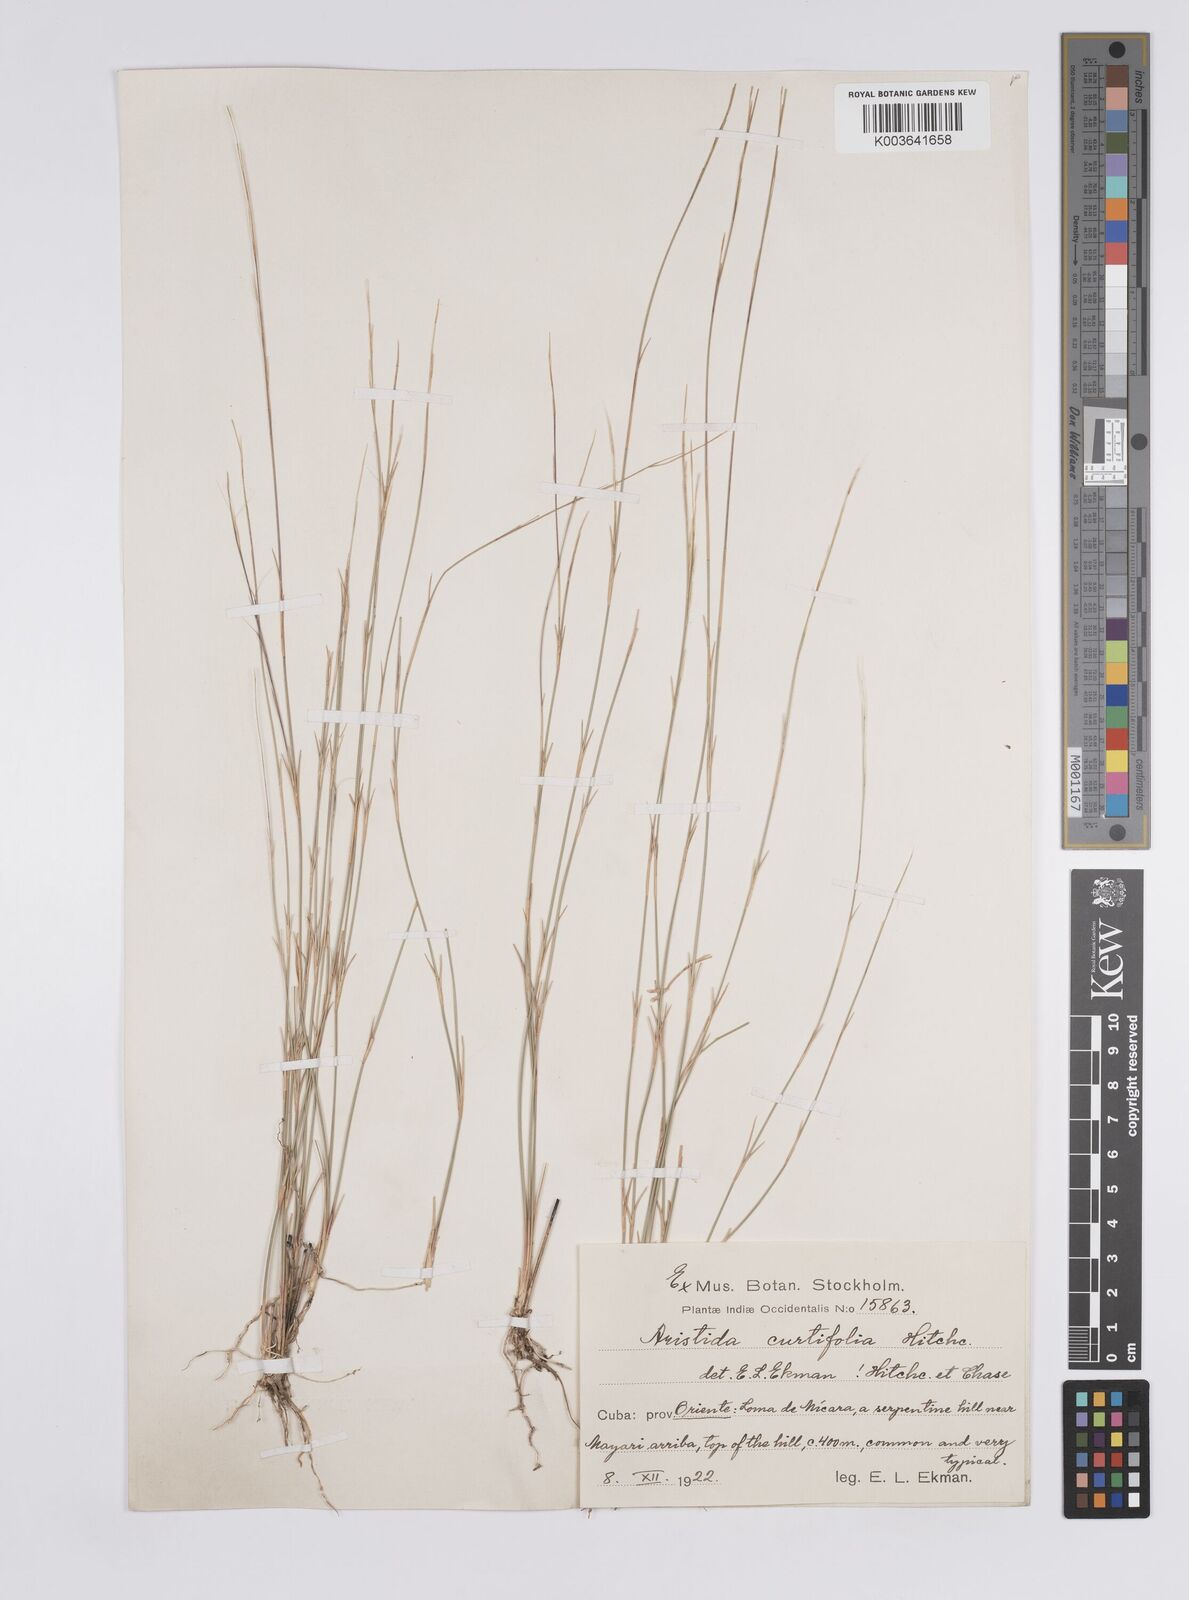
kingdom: Plantae
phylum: Tracheophyta
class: Liliopsida
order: Poales
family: Poaceae
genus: Aristida
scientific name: Aristida curtifolia
